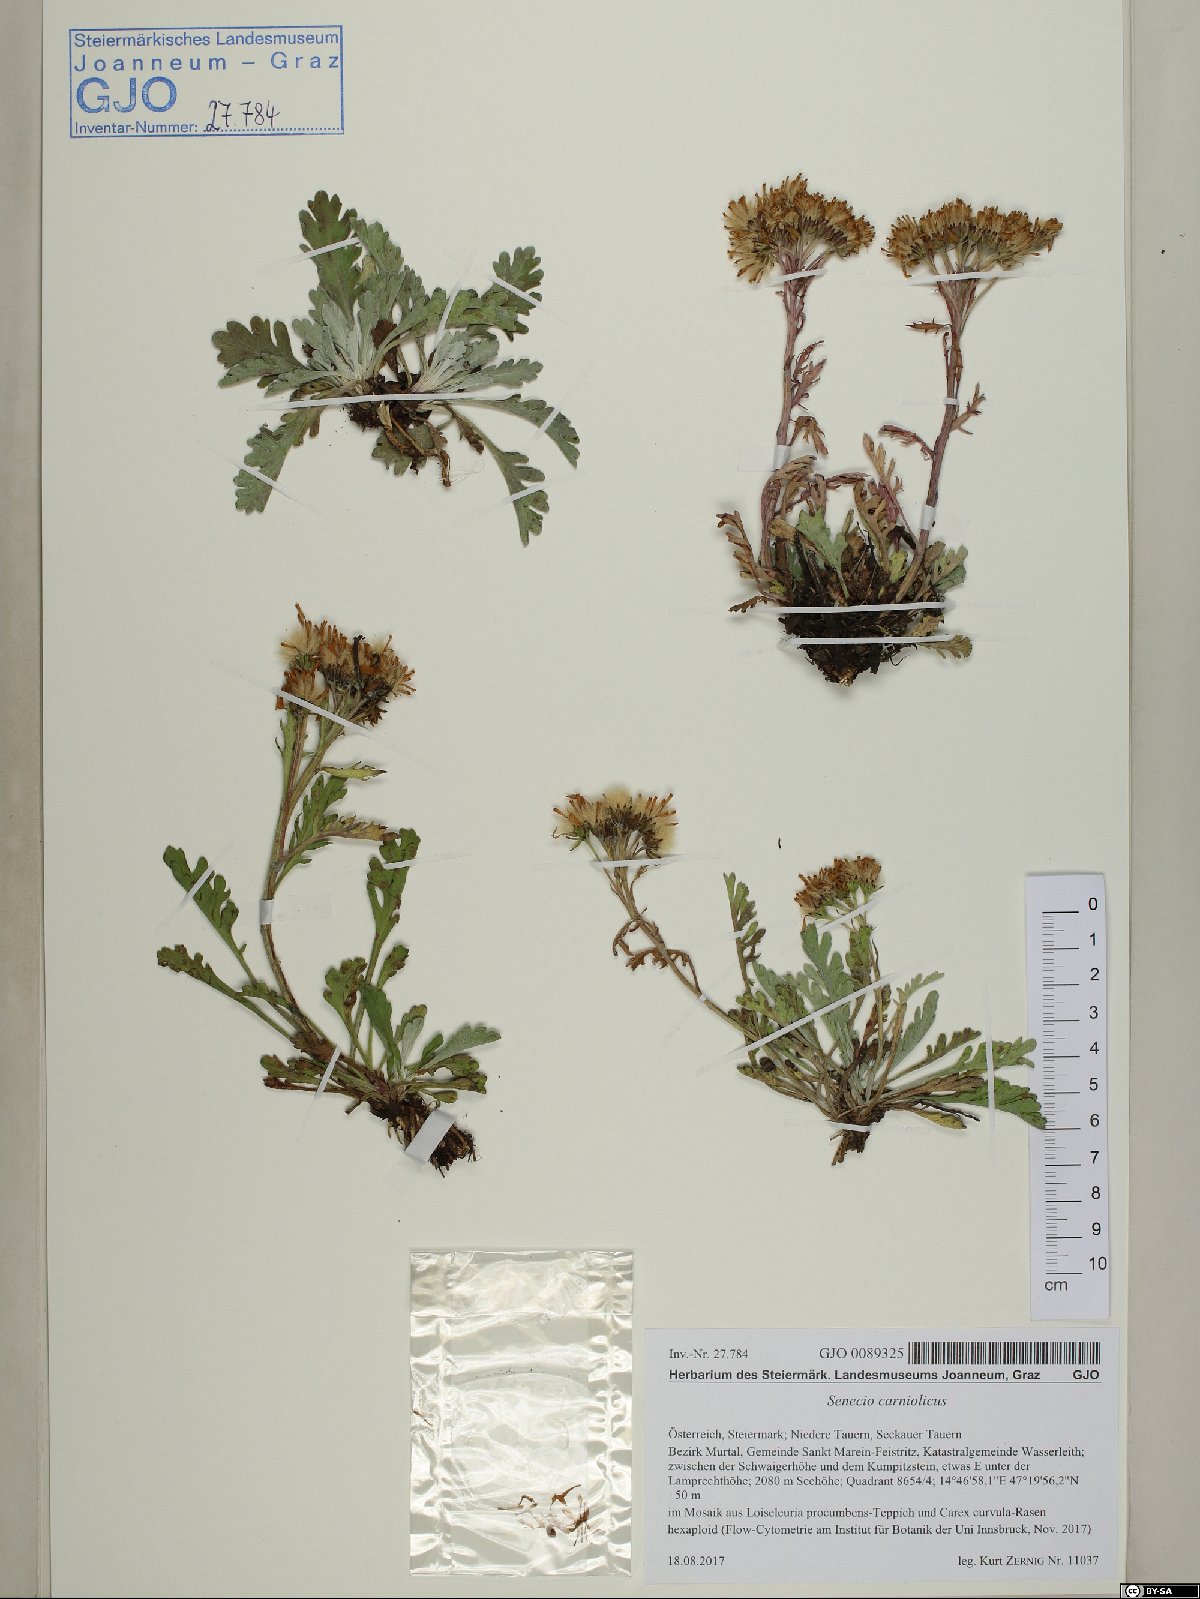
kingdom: Plantae
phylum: Tracheophyta
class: Magnoliopsida
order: Asterales
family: Asteraceae
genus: Jacobaea
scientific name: Jacobaea carniolica
